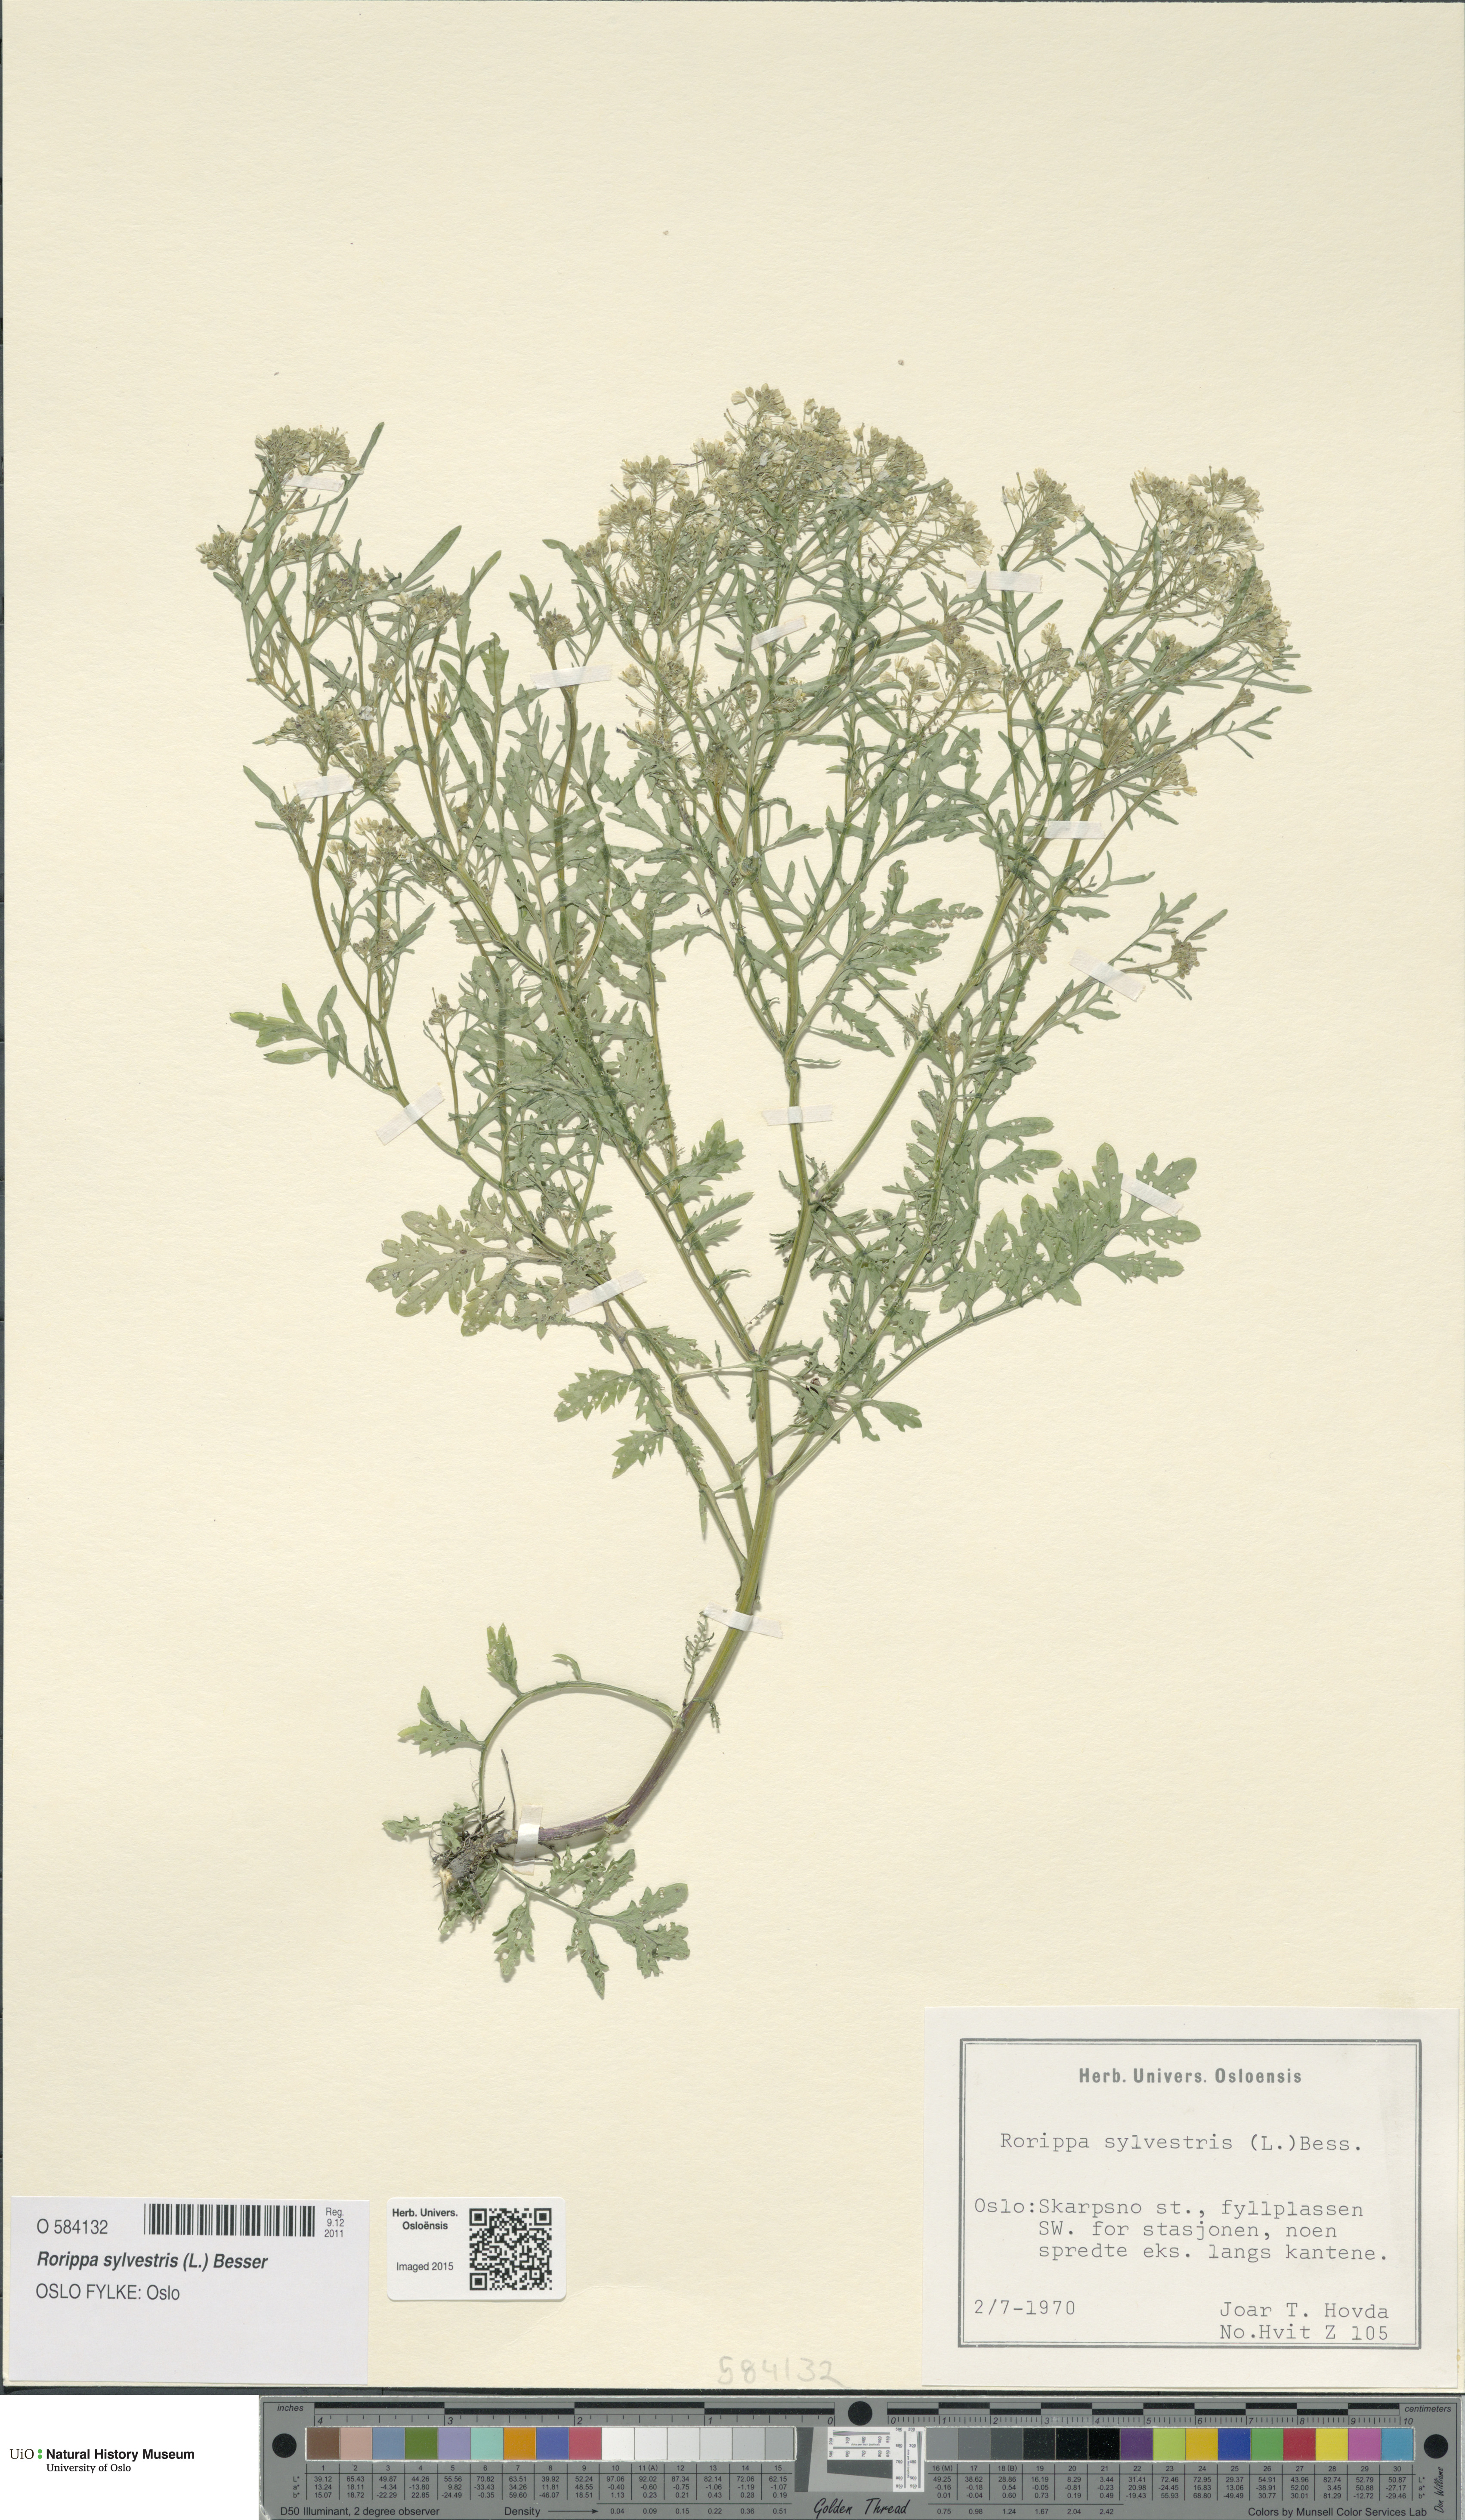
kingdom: Plantae
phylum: Tracheophyta
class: Magnoliopsida
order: Brassicales
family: Brassicaceae
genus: Rorippa
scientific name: Rorippa sylvestris
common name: Creeping yellowcress
